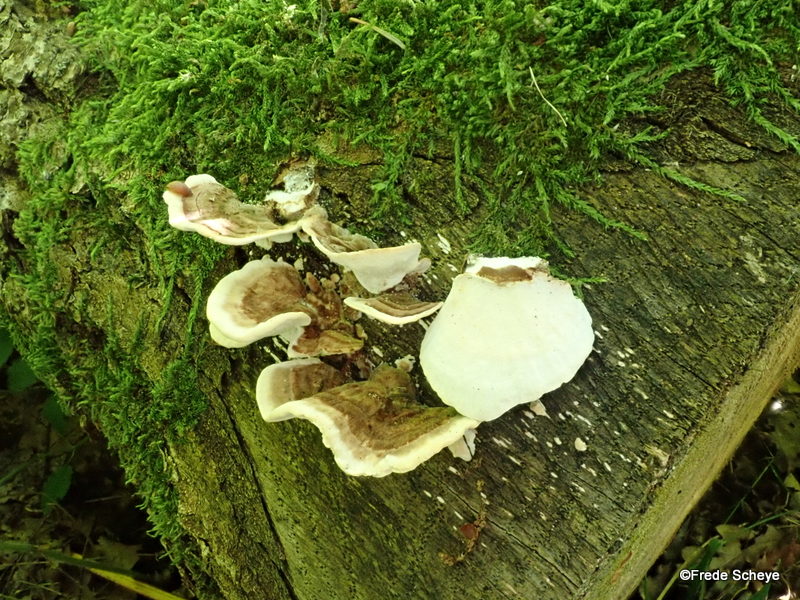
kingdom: Fungi
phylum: Basidiomycota
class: Agaricomycetes
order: Polyporales
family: Polyporaceae
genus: Trametes
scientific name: Trametes versicolor
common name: broget læderporesvamp
